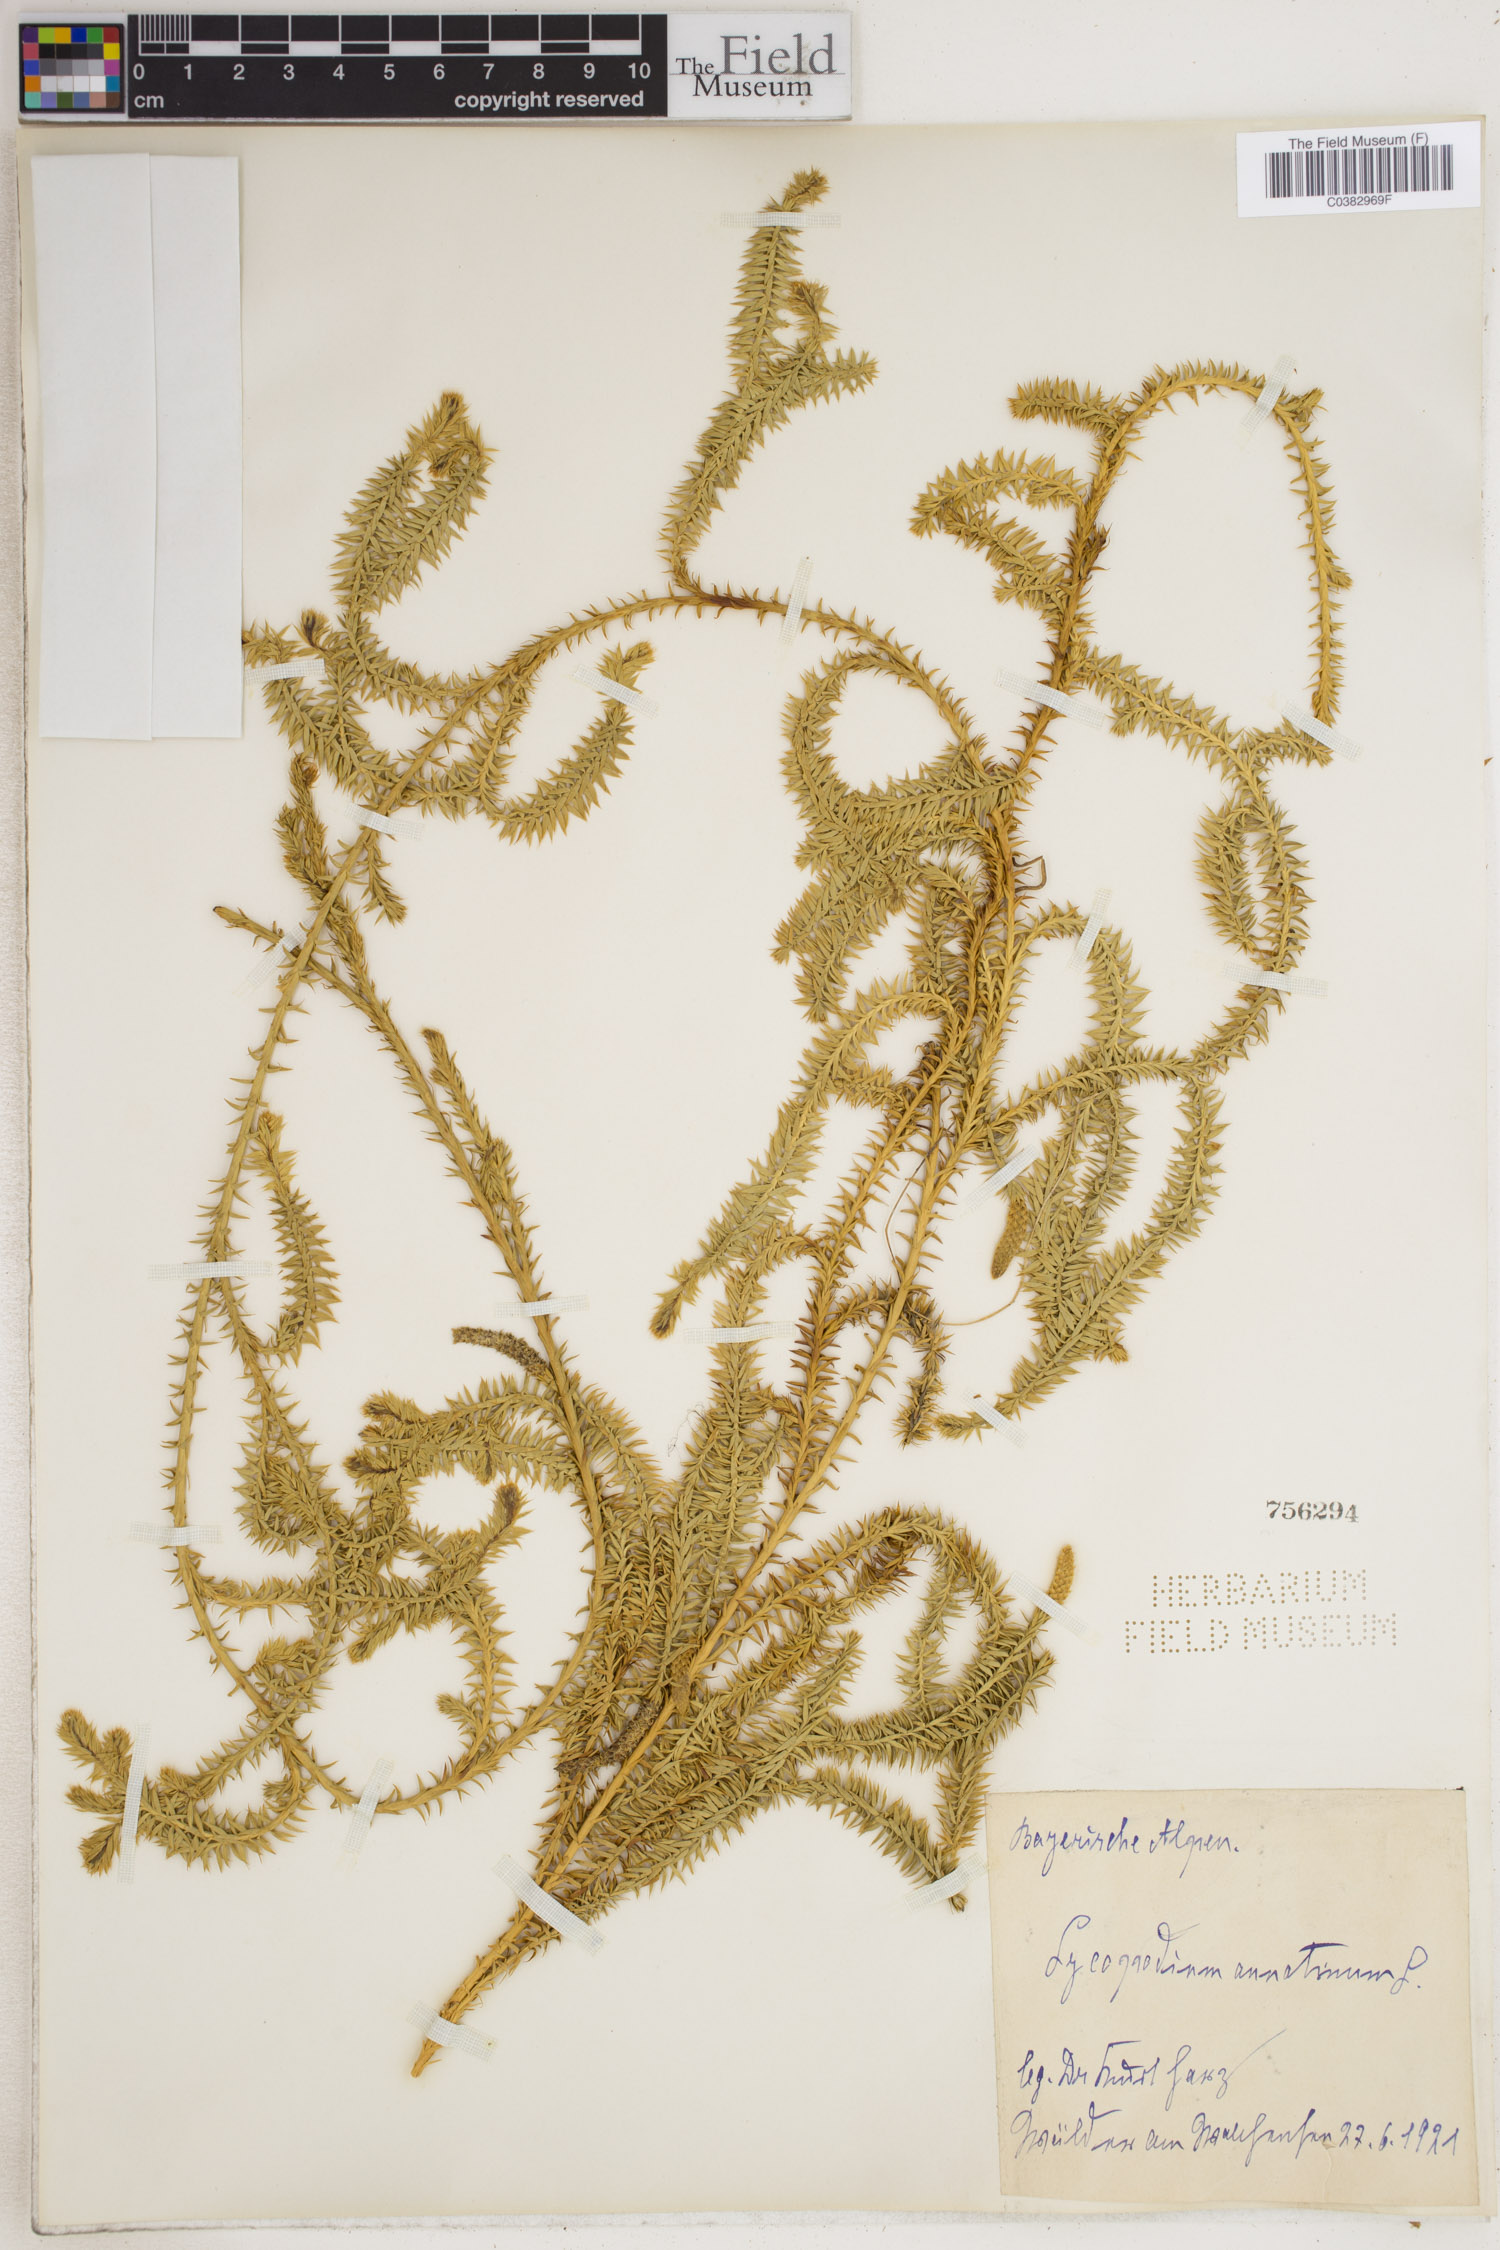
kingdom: Plantae
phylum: Tracheophyta
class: Lycopodiopsida
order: Lycopodiales
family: Lycopodiaceae
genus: Spinulum
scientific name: Spinulum annotinum
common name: Interrupted club-moss
